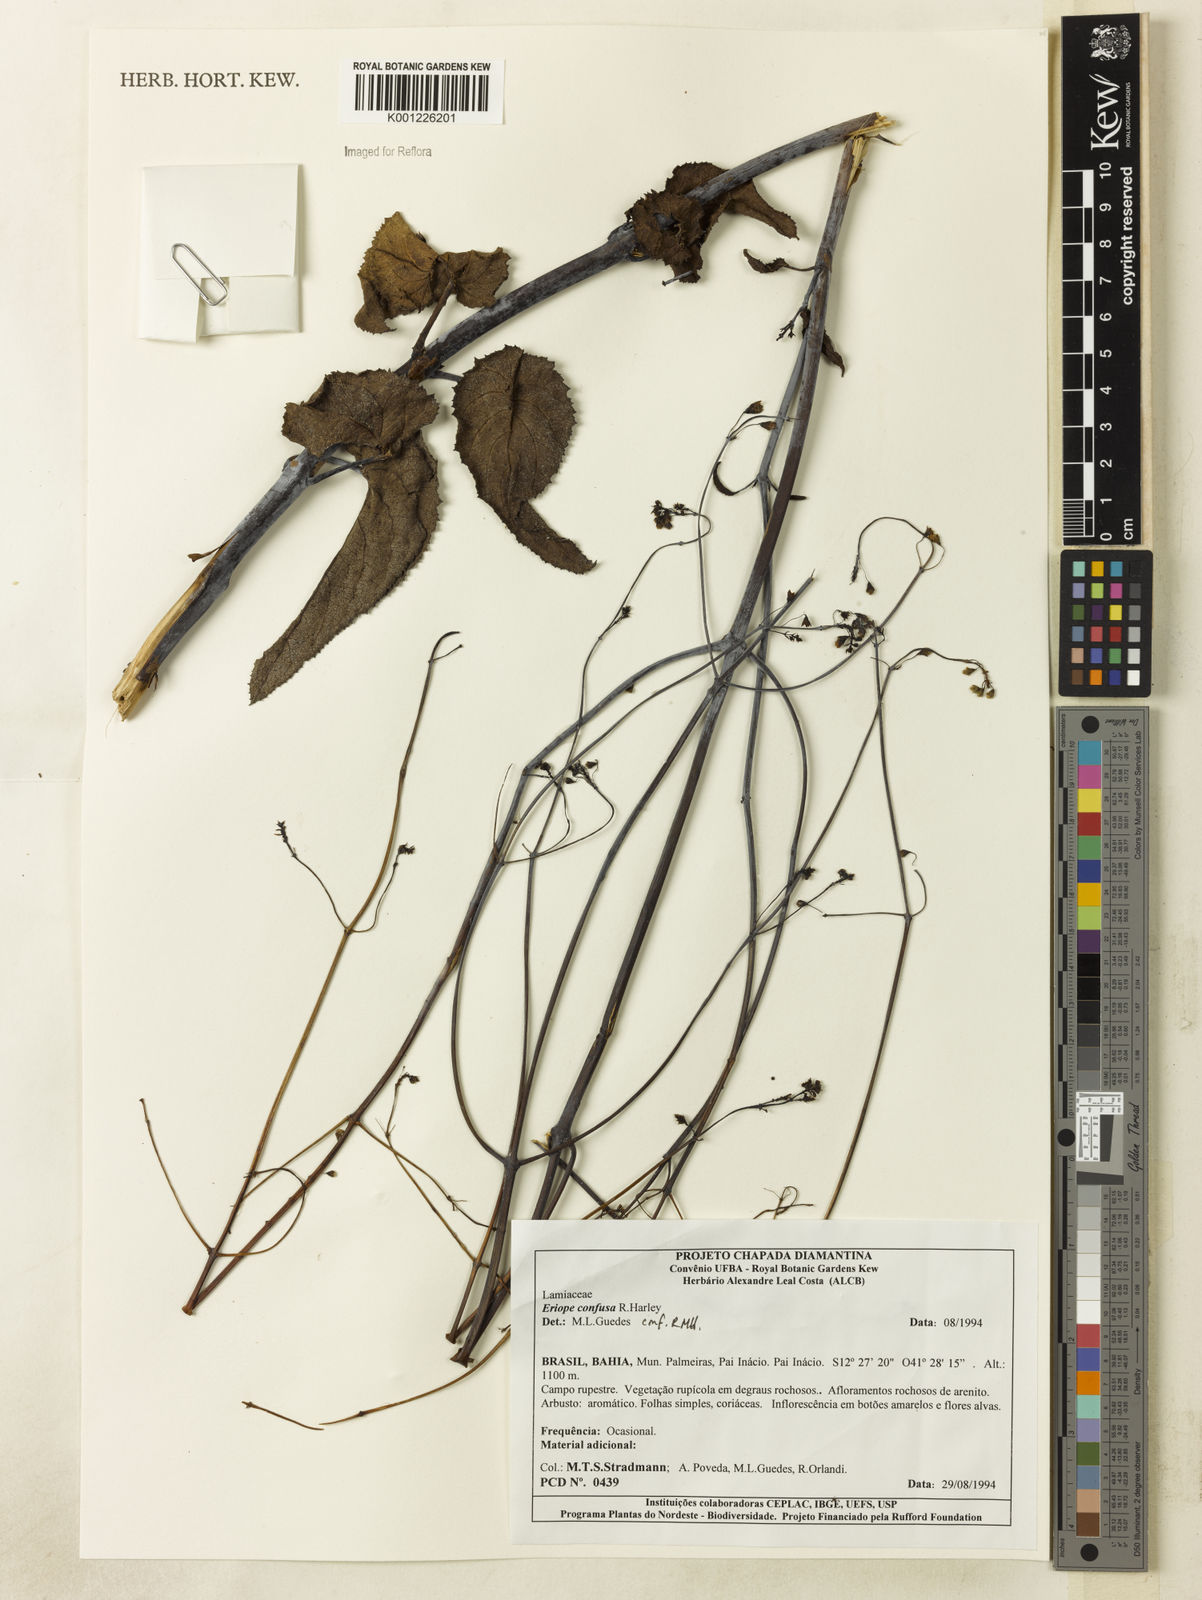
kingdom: Plantae
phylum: Tracheophyta
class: Magnoliopsida
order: Lamiales
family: Lamiaceae
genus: Eriope
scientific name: Eriope confusa
